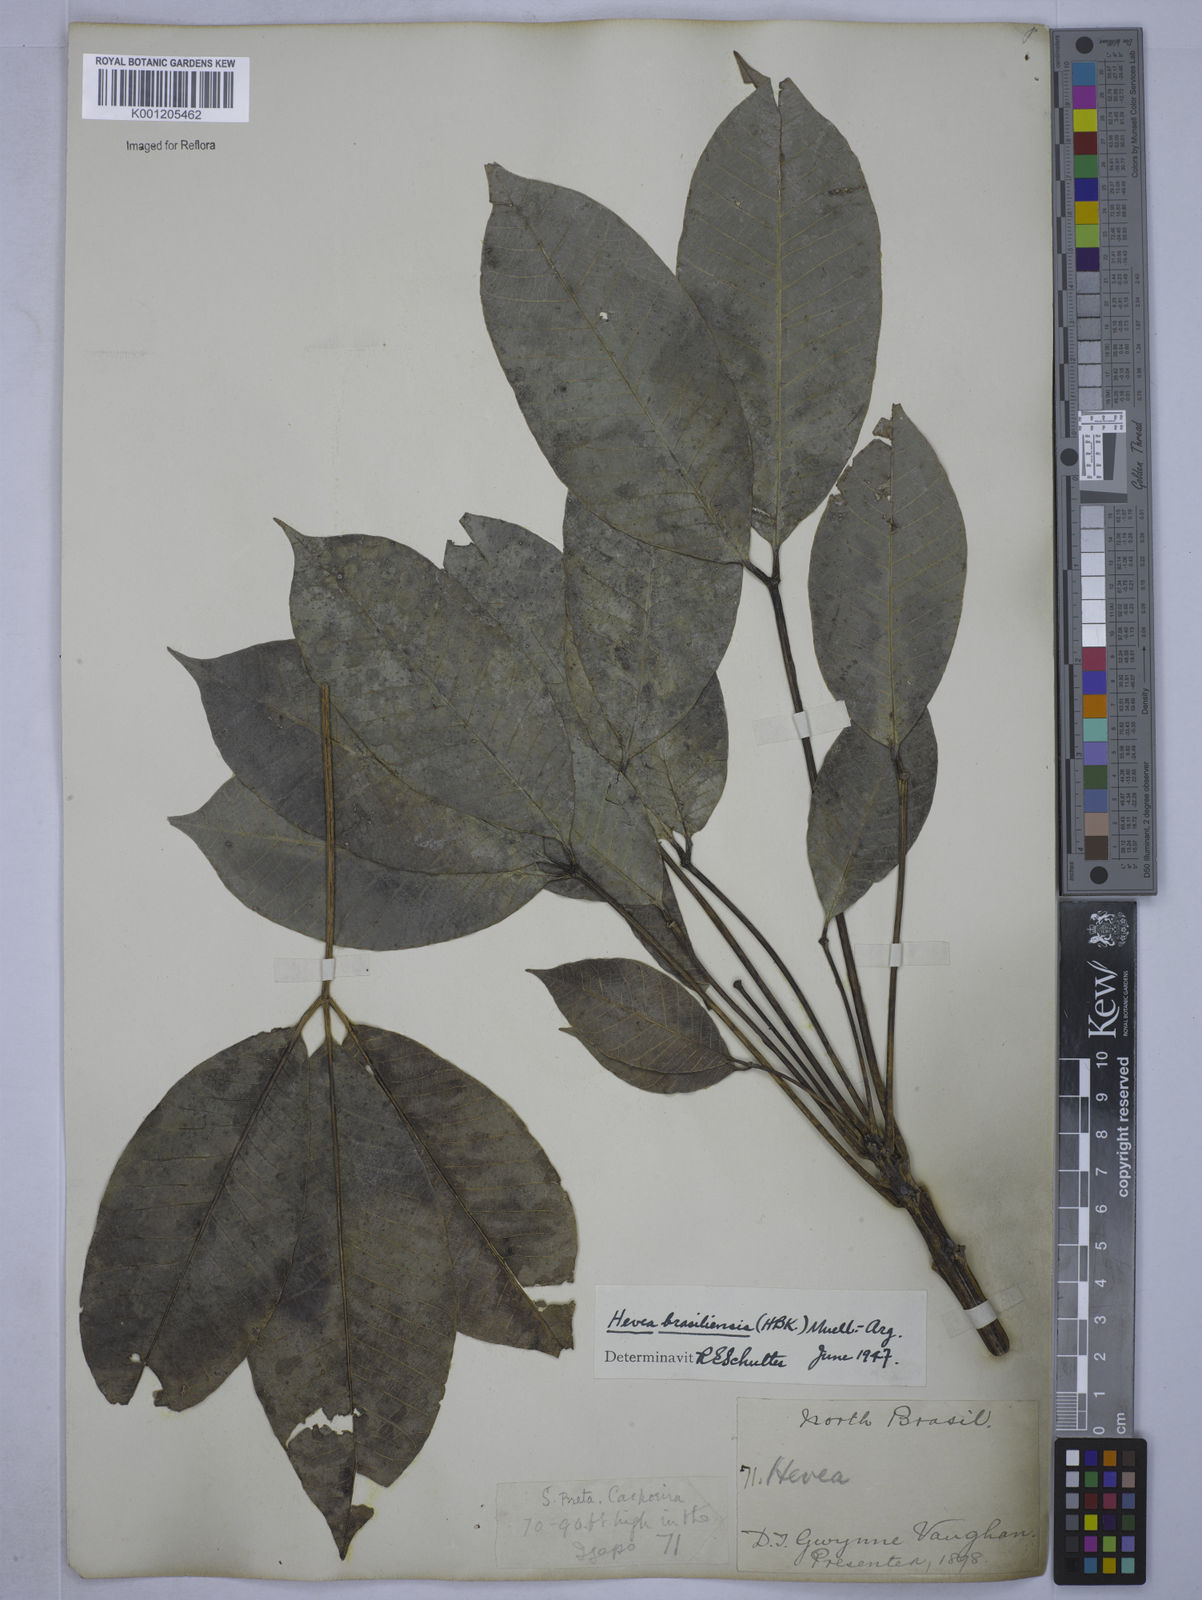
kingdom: Plantae
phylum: Tracheophyta
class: Magnoliopsida
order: Malpighiales
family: Euphorbiaceae
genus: Hevea
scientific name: Hevea
